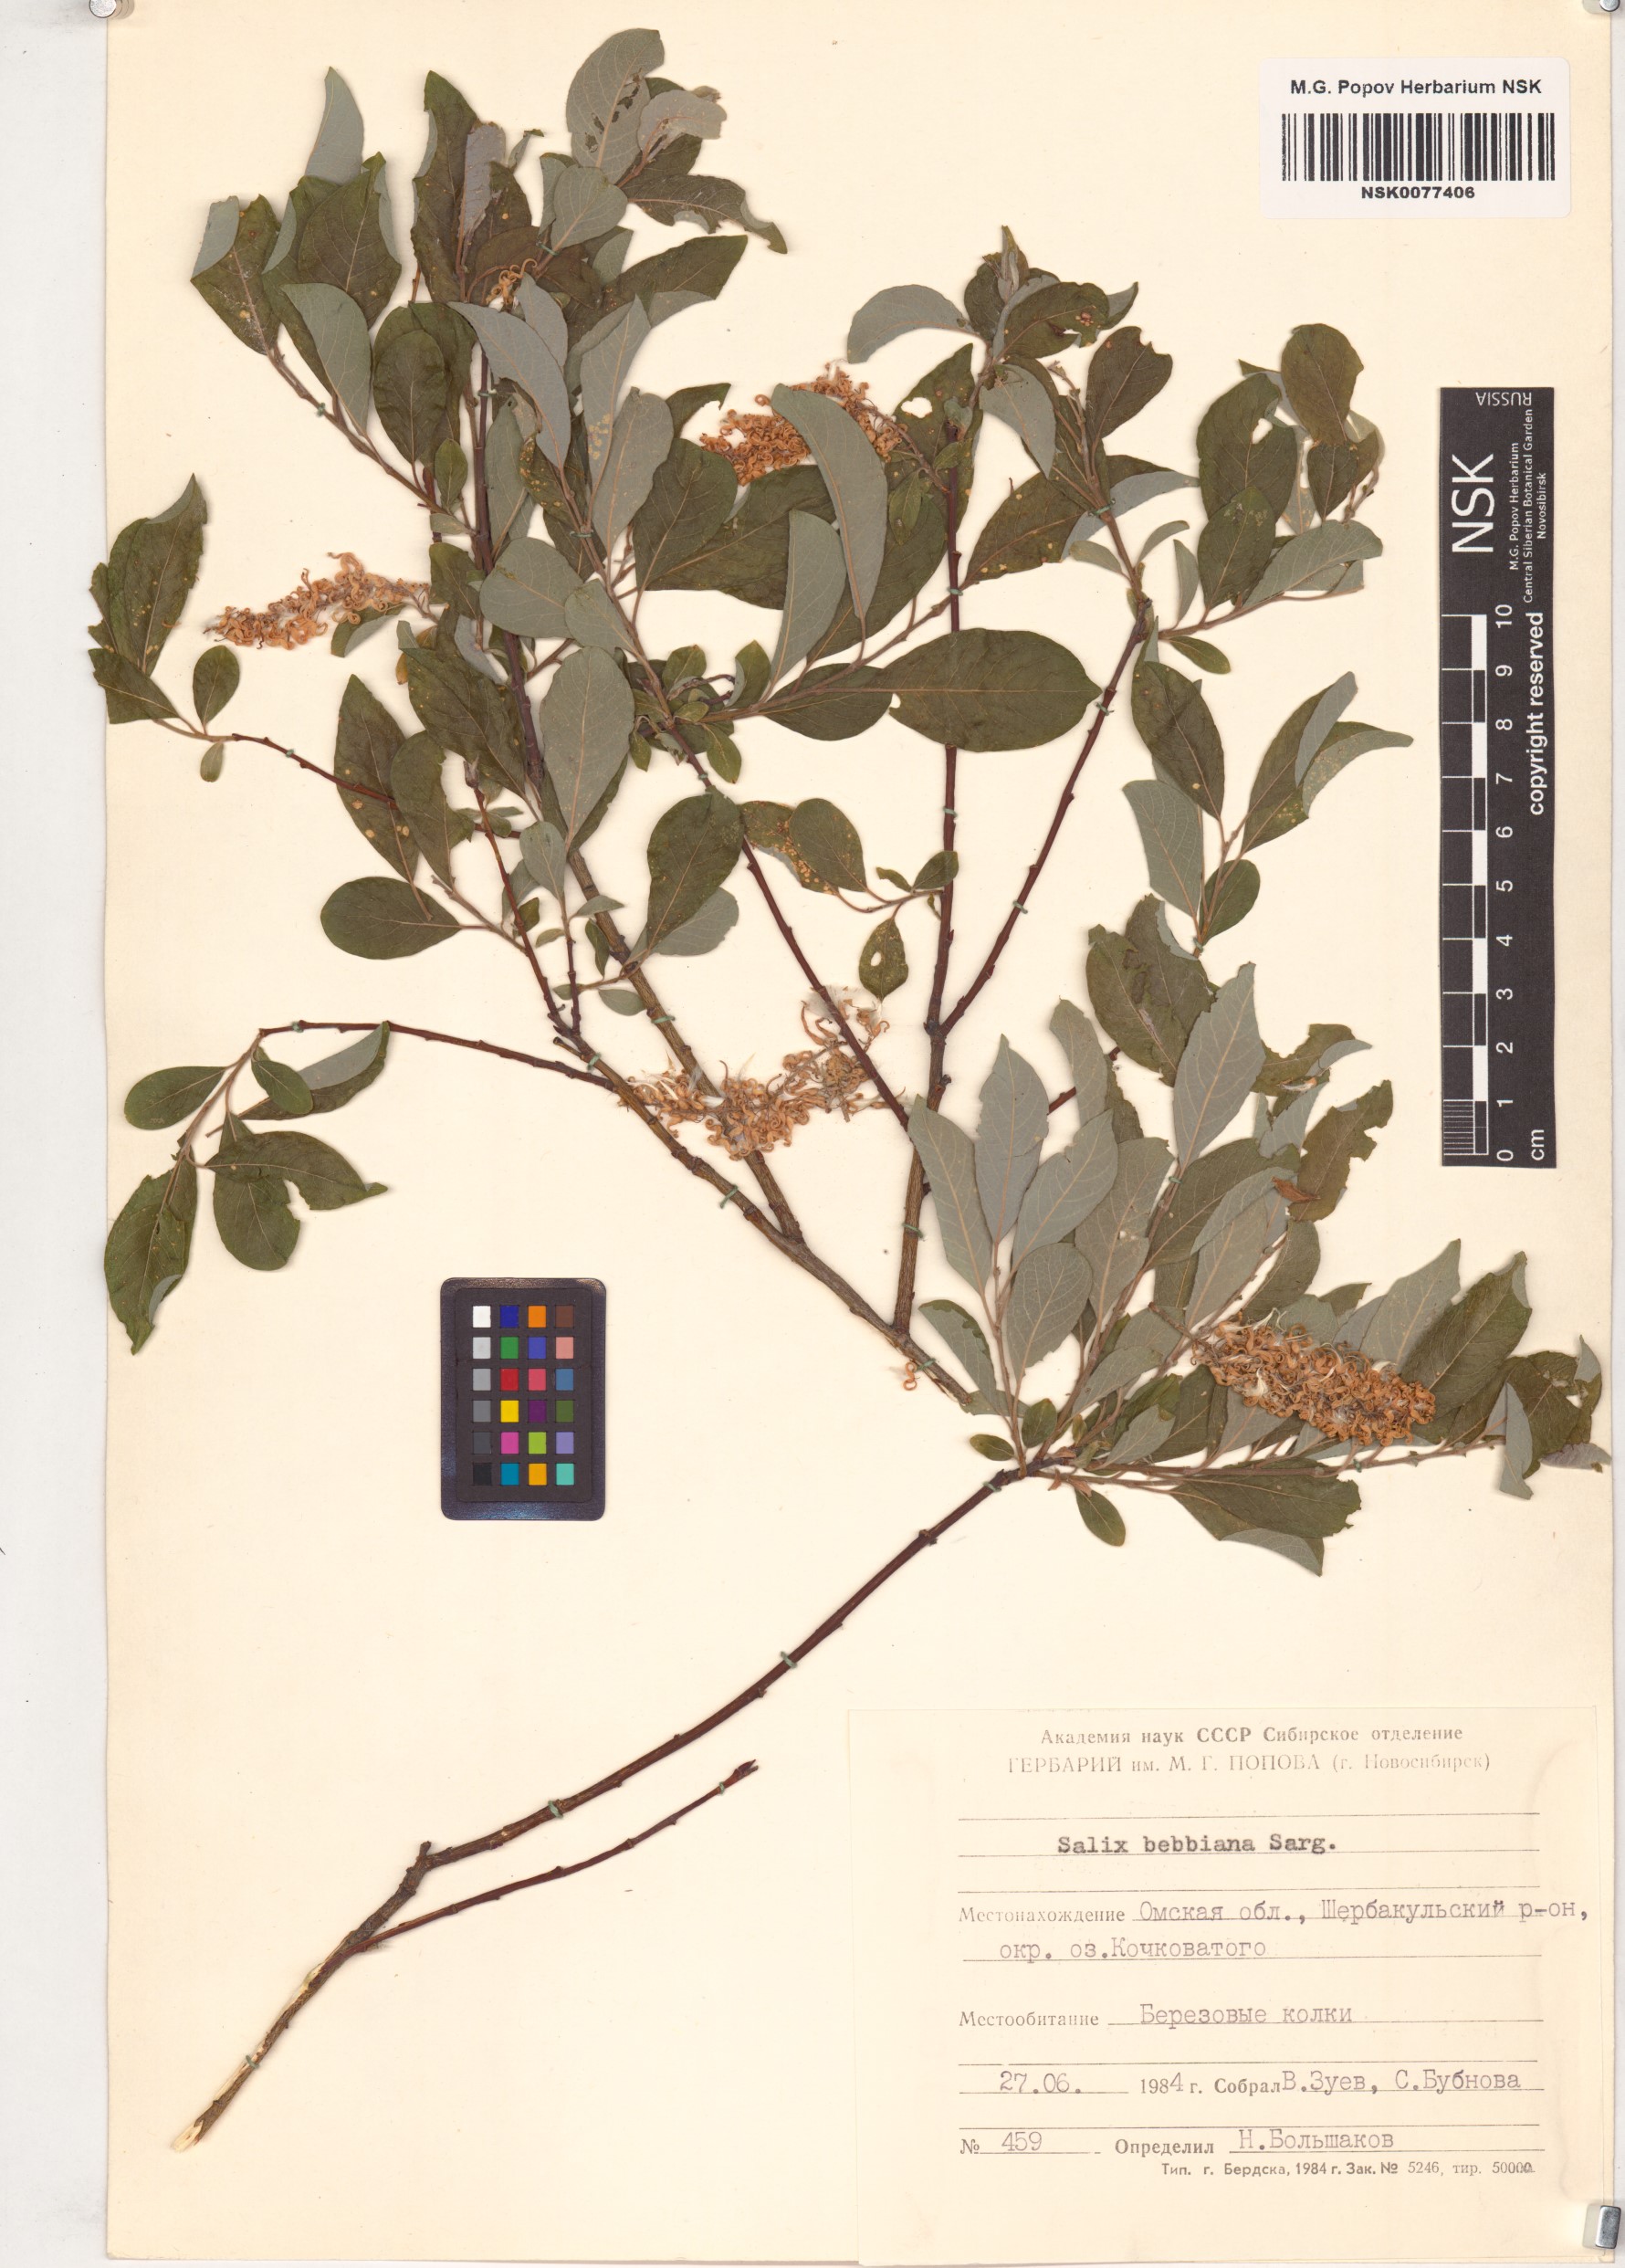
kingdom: Plantae
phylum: Tracheophyta
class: Magnoliopsida
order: Malpighiales
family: Salicaceae
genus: Salix
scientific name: Salix bebbiana
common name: Bebb's willow
